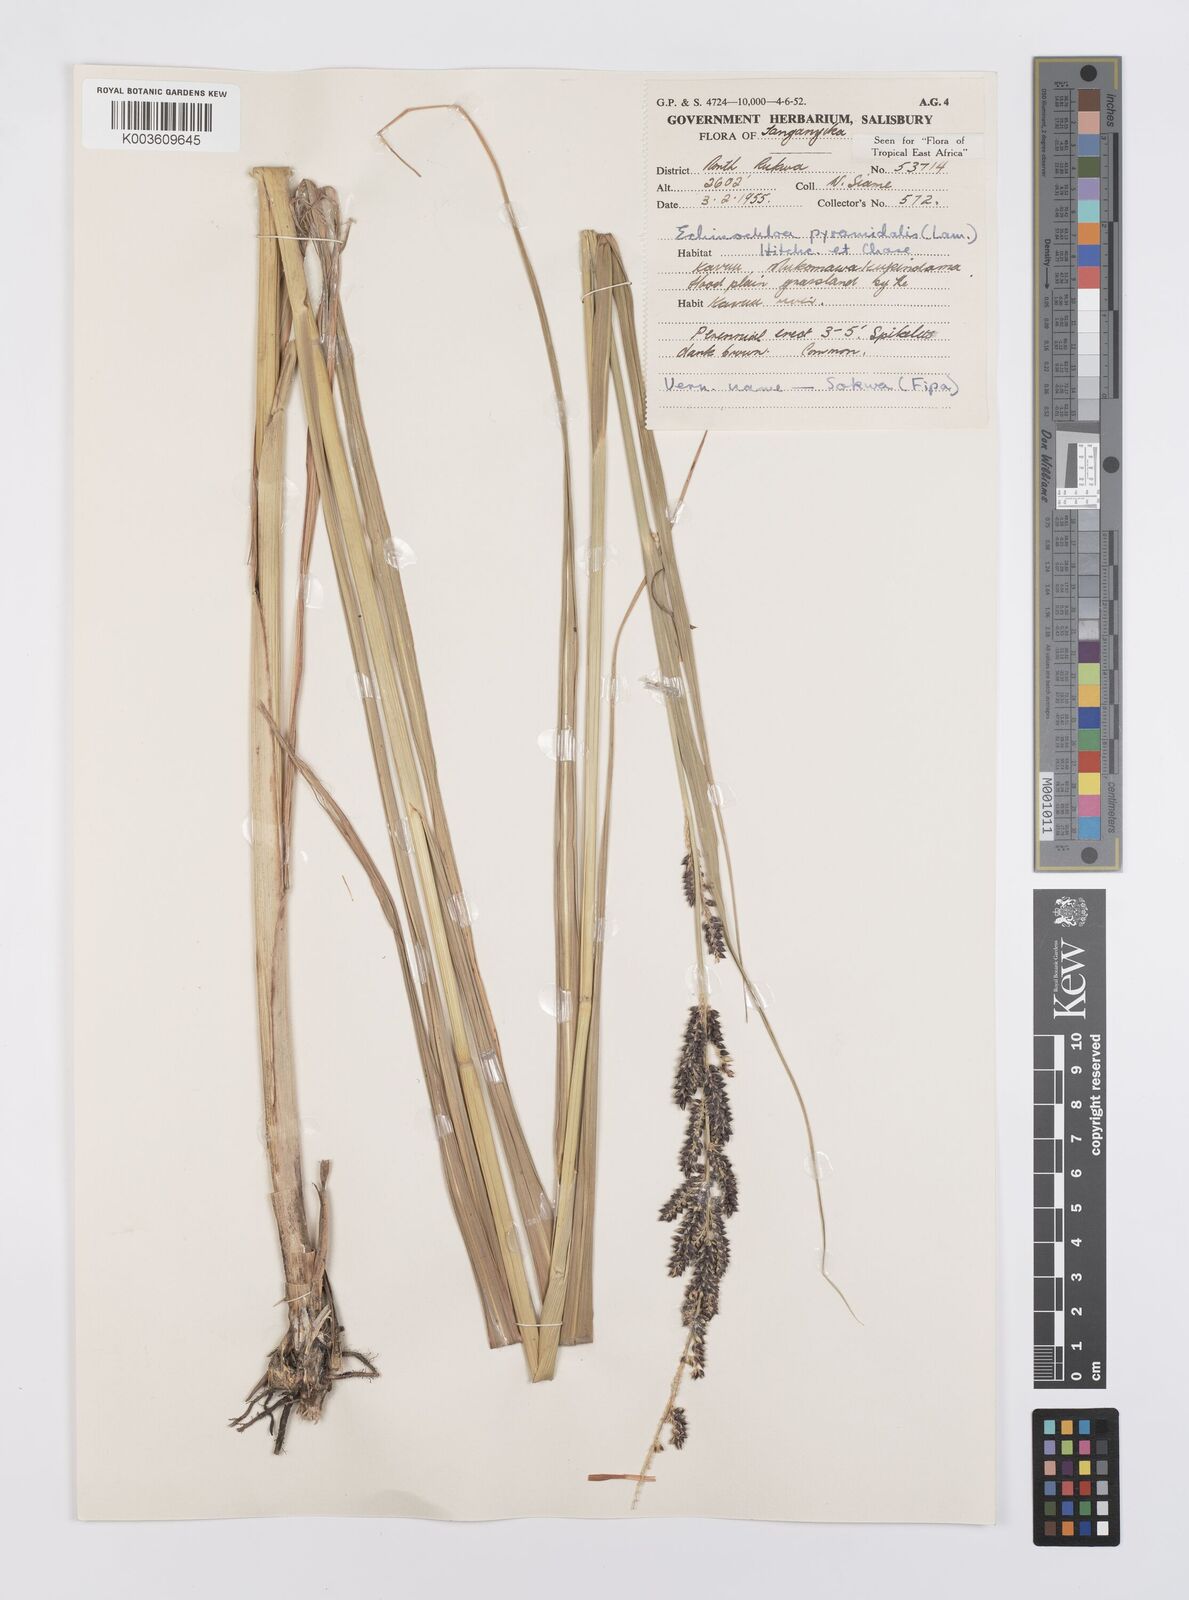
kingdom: Plantae
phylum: Tracheophyta
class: Liliopsida
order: Poales
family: Poaceae
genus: Echinochloa
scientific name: Echinochloa pyramidalis
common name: Antelope grass
